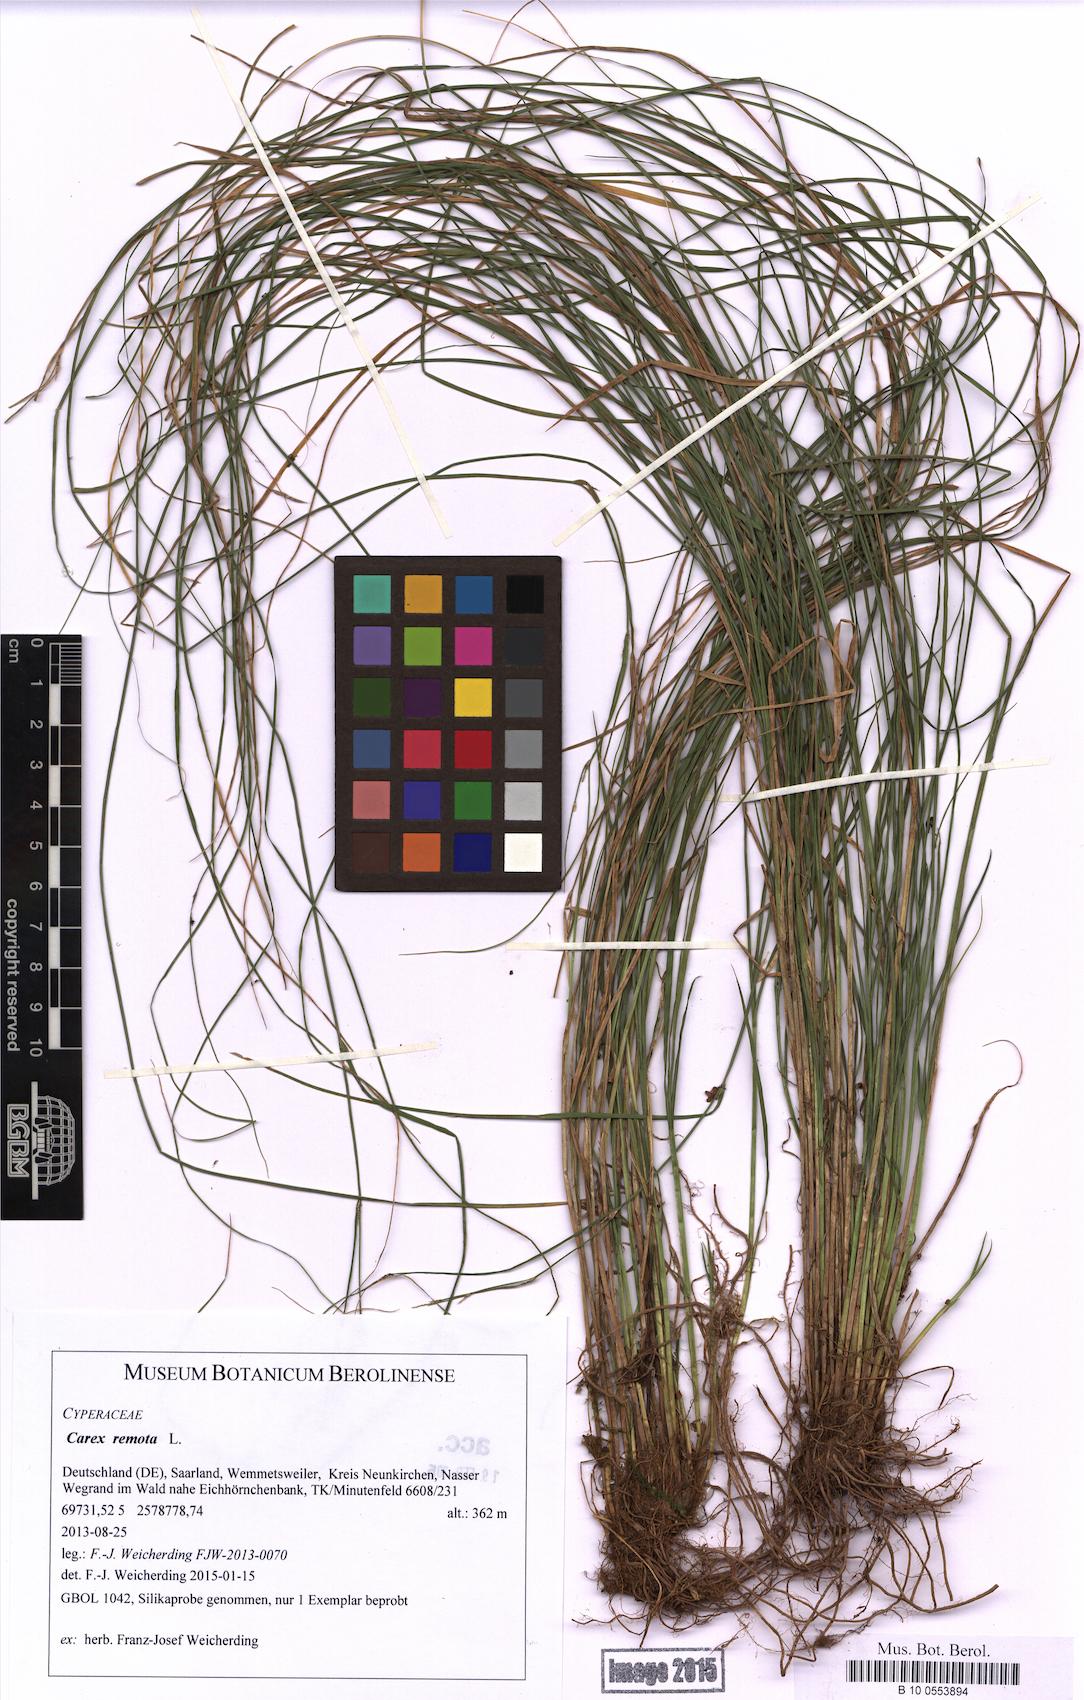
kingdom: Plantae
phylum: Tracheophyta
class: Liliopsida
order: Poales
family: Cyperaceae
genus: Carex
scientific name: Carex remota
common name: Remote sedge
